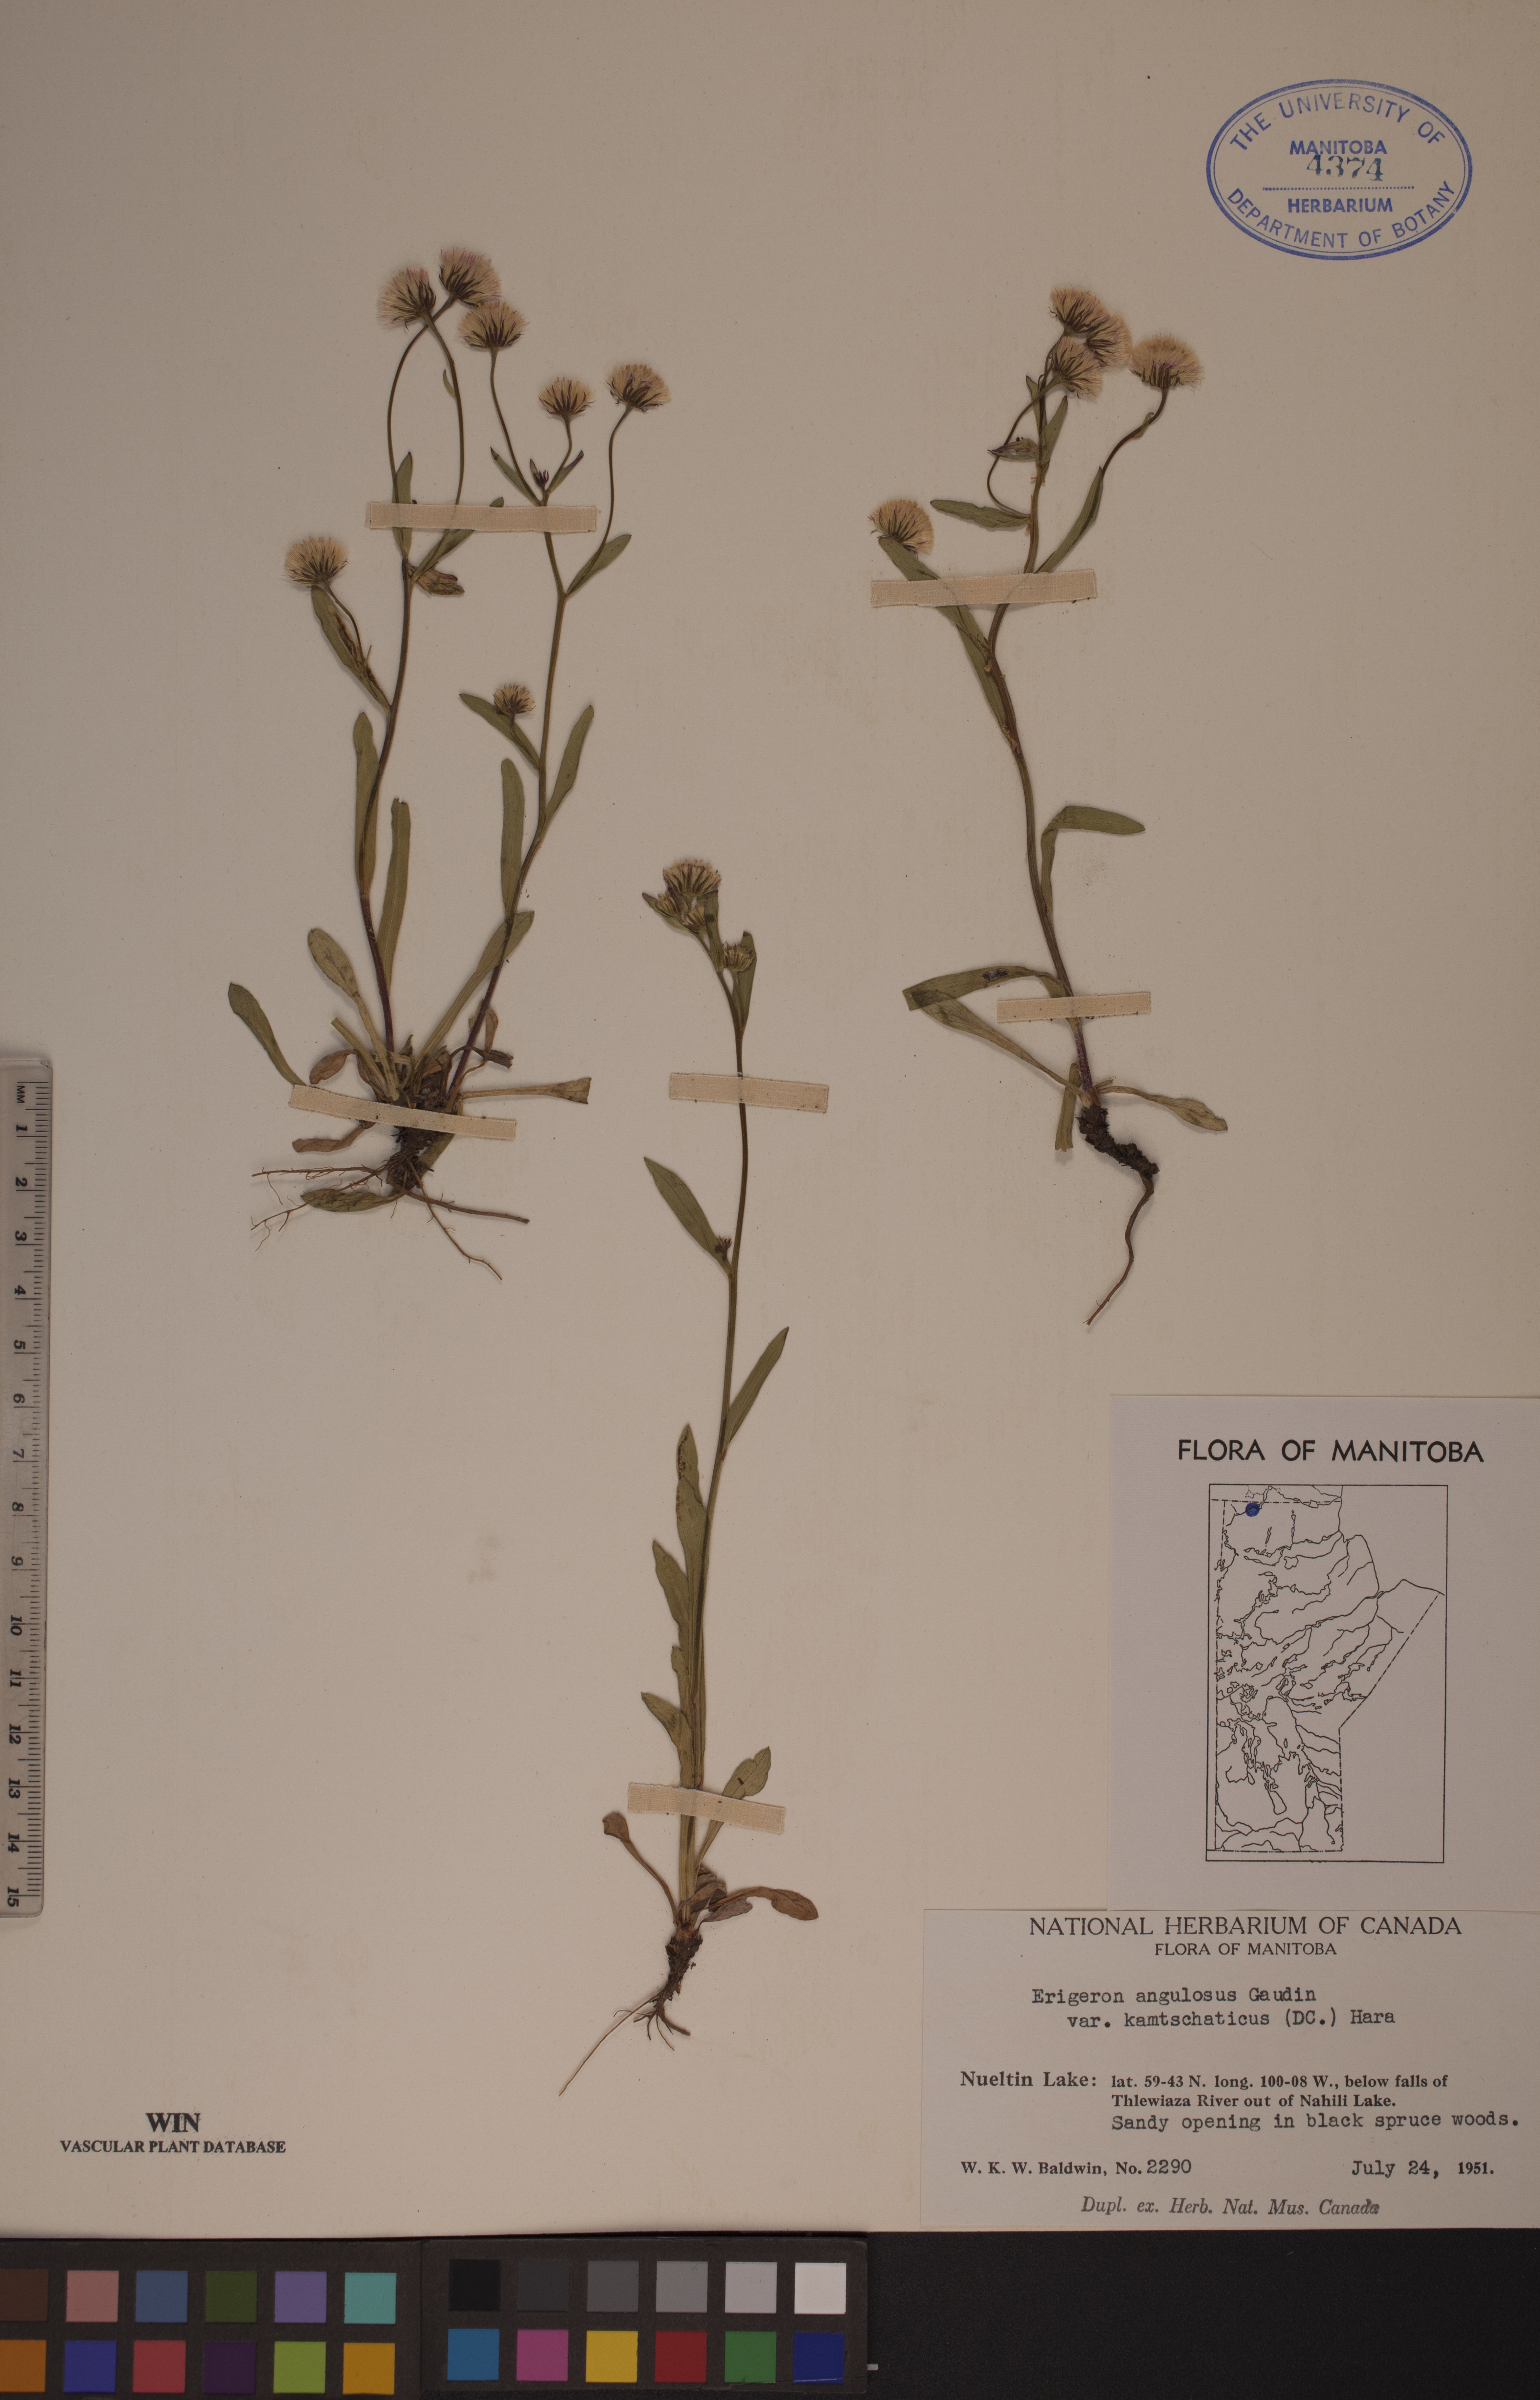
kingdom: Plantae
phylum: Tracheophyta
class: Magnoliopsida
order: Asterales
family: Asteraceae
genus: Erigeron
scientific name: Erigeron kamtschaticus
